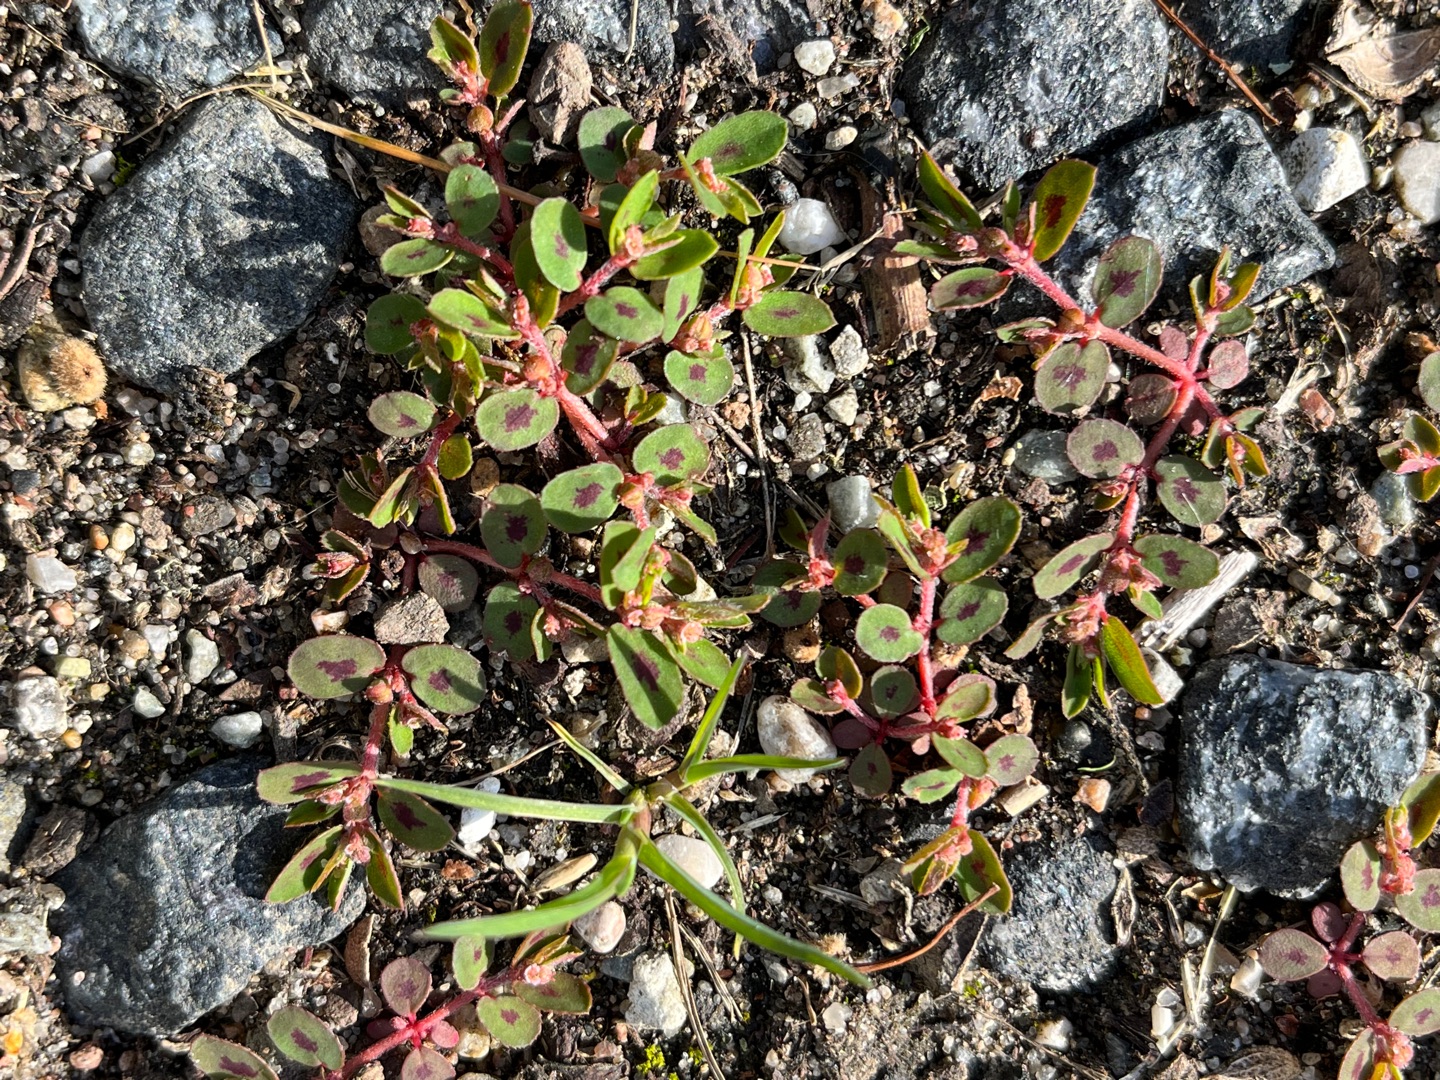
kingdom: Plantae
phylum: Tracheophyta
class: Magnoliopsida
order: Malpighiales
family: Euphorbiaceae
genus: Euphorbia
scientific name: Euphorbia maculata
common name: Plet-vortemælk
